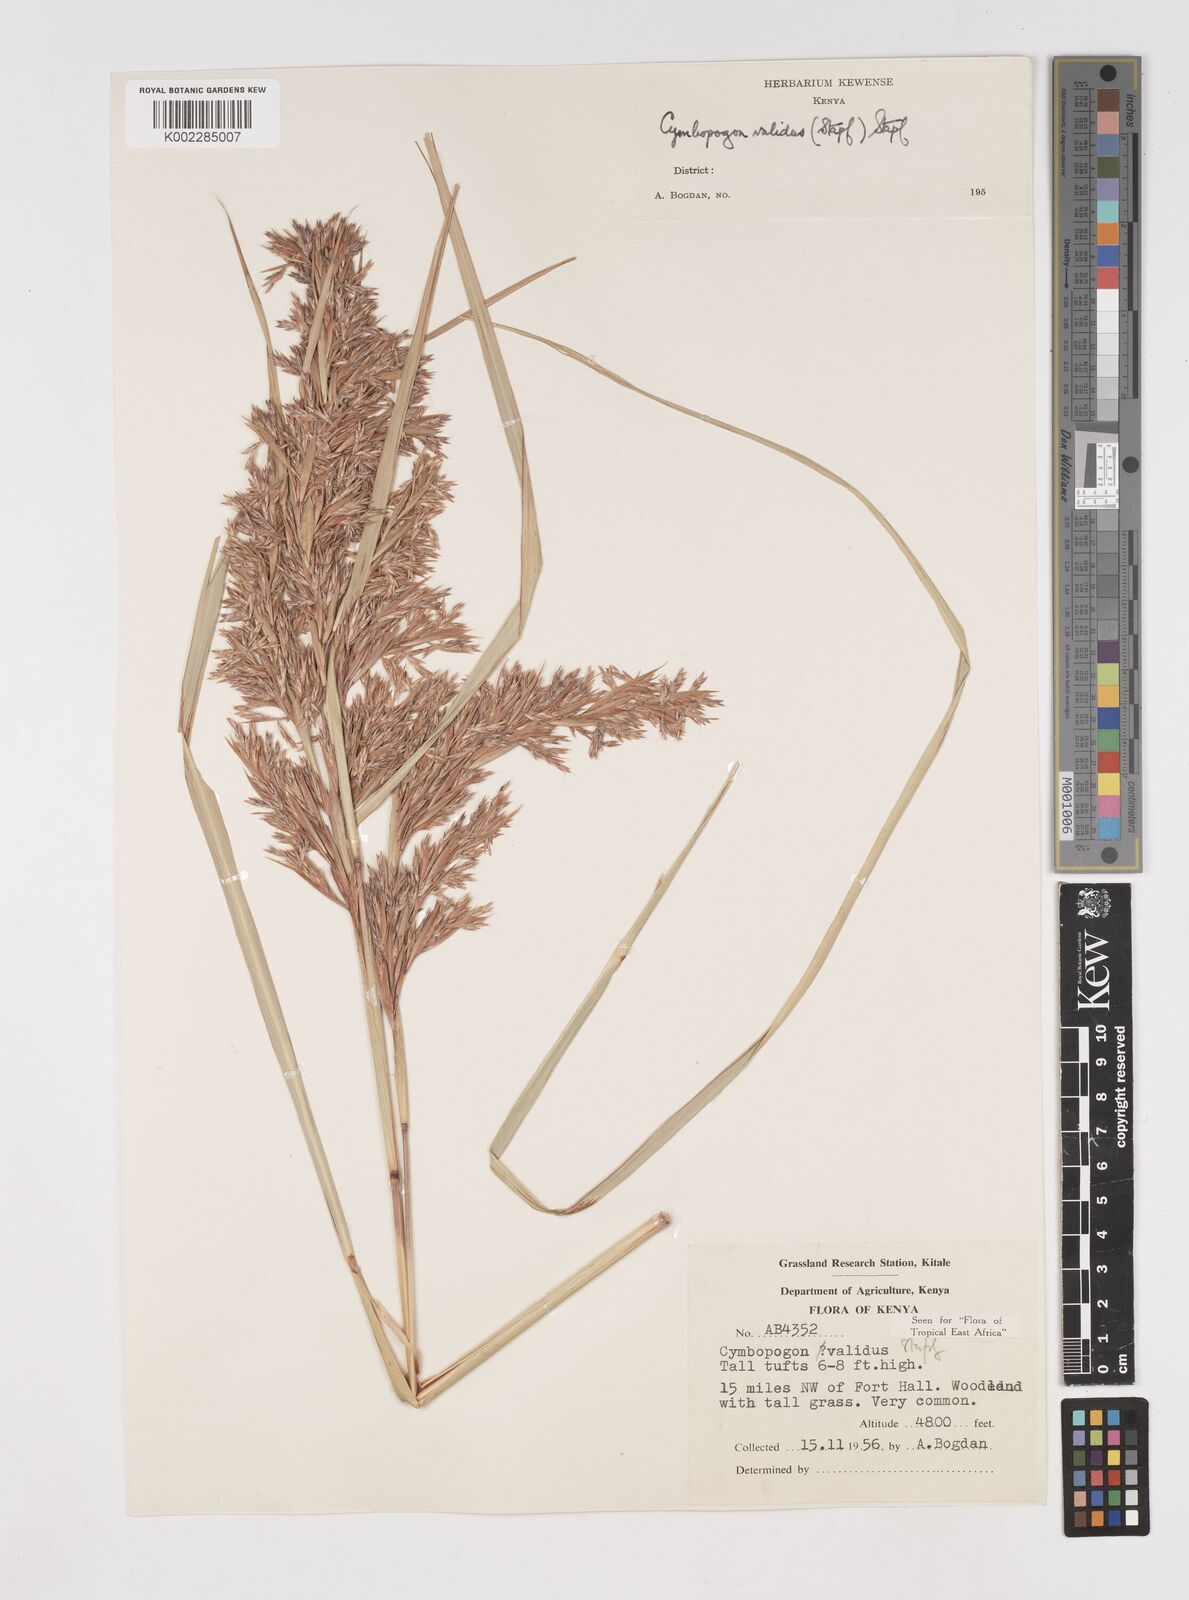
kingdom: Plantae
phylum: Tracheophyta
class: Liliopsida
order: Poales
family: Poaceae
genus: Cymbopogon
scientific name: Cymbopogon nardus
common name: Giant turpentine grass
